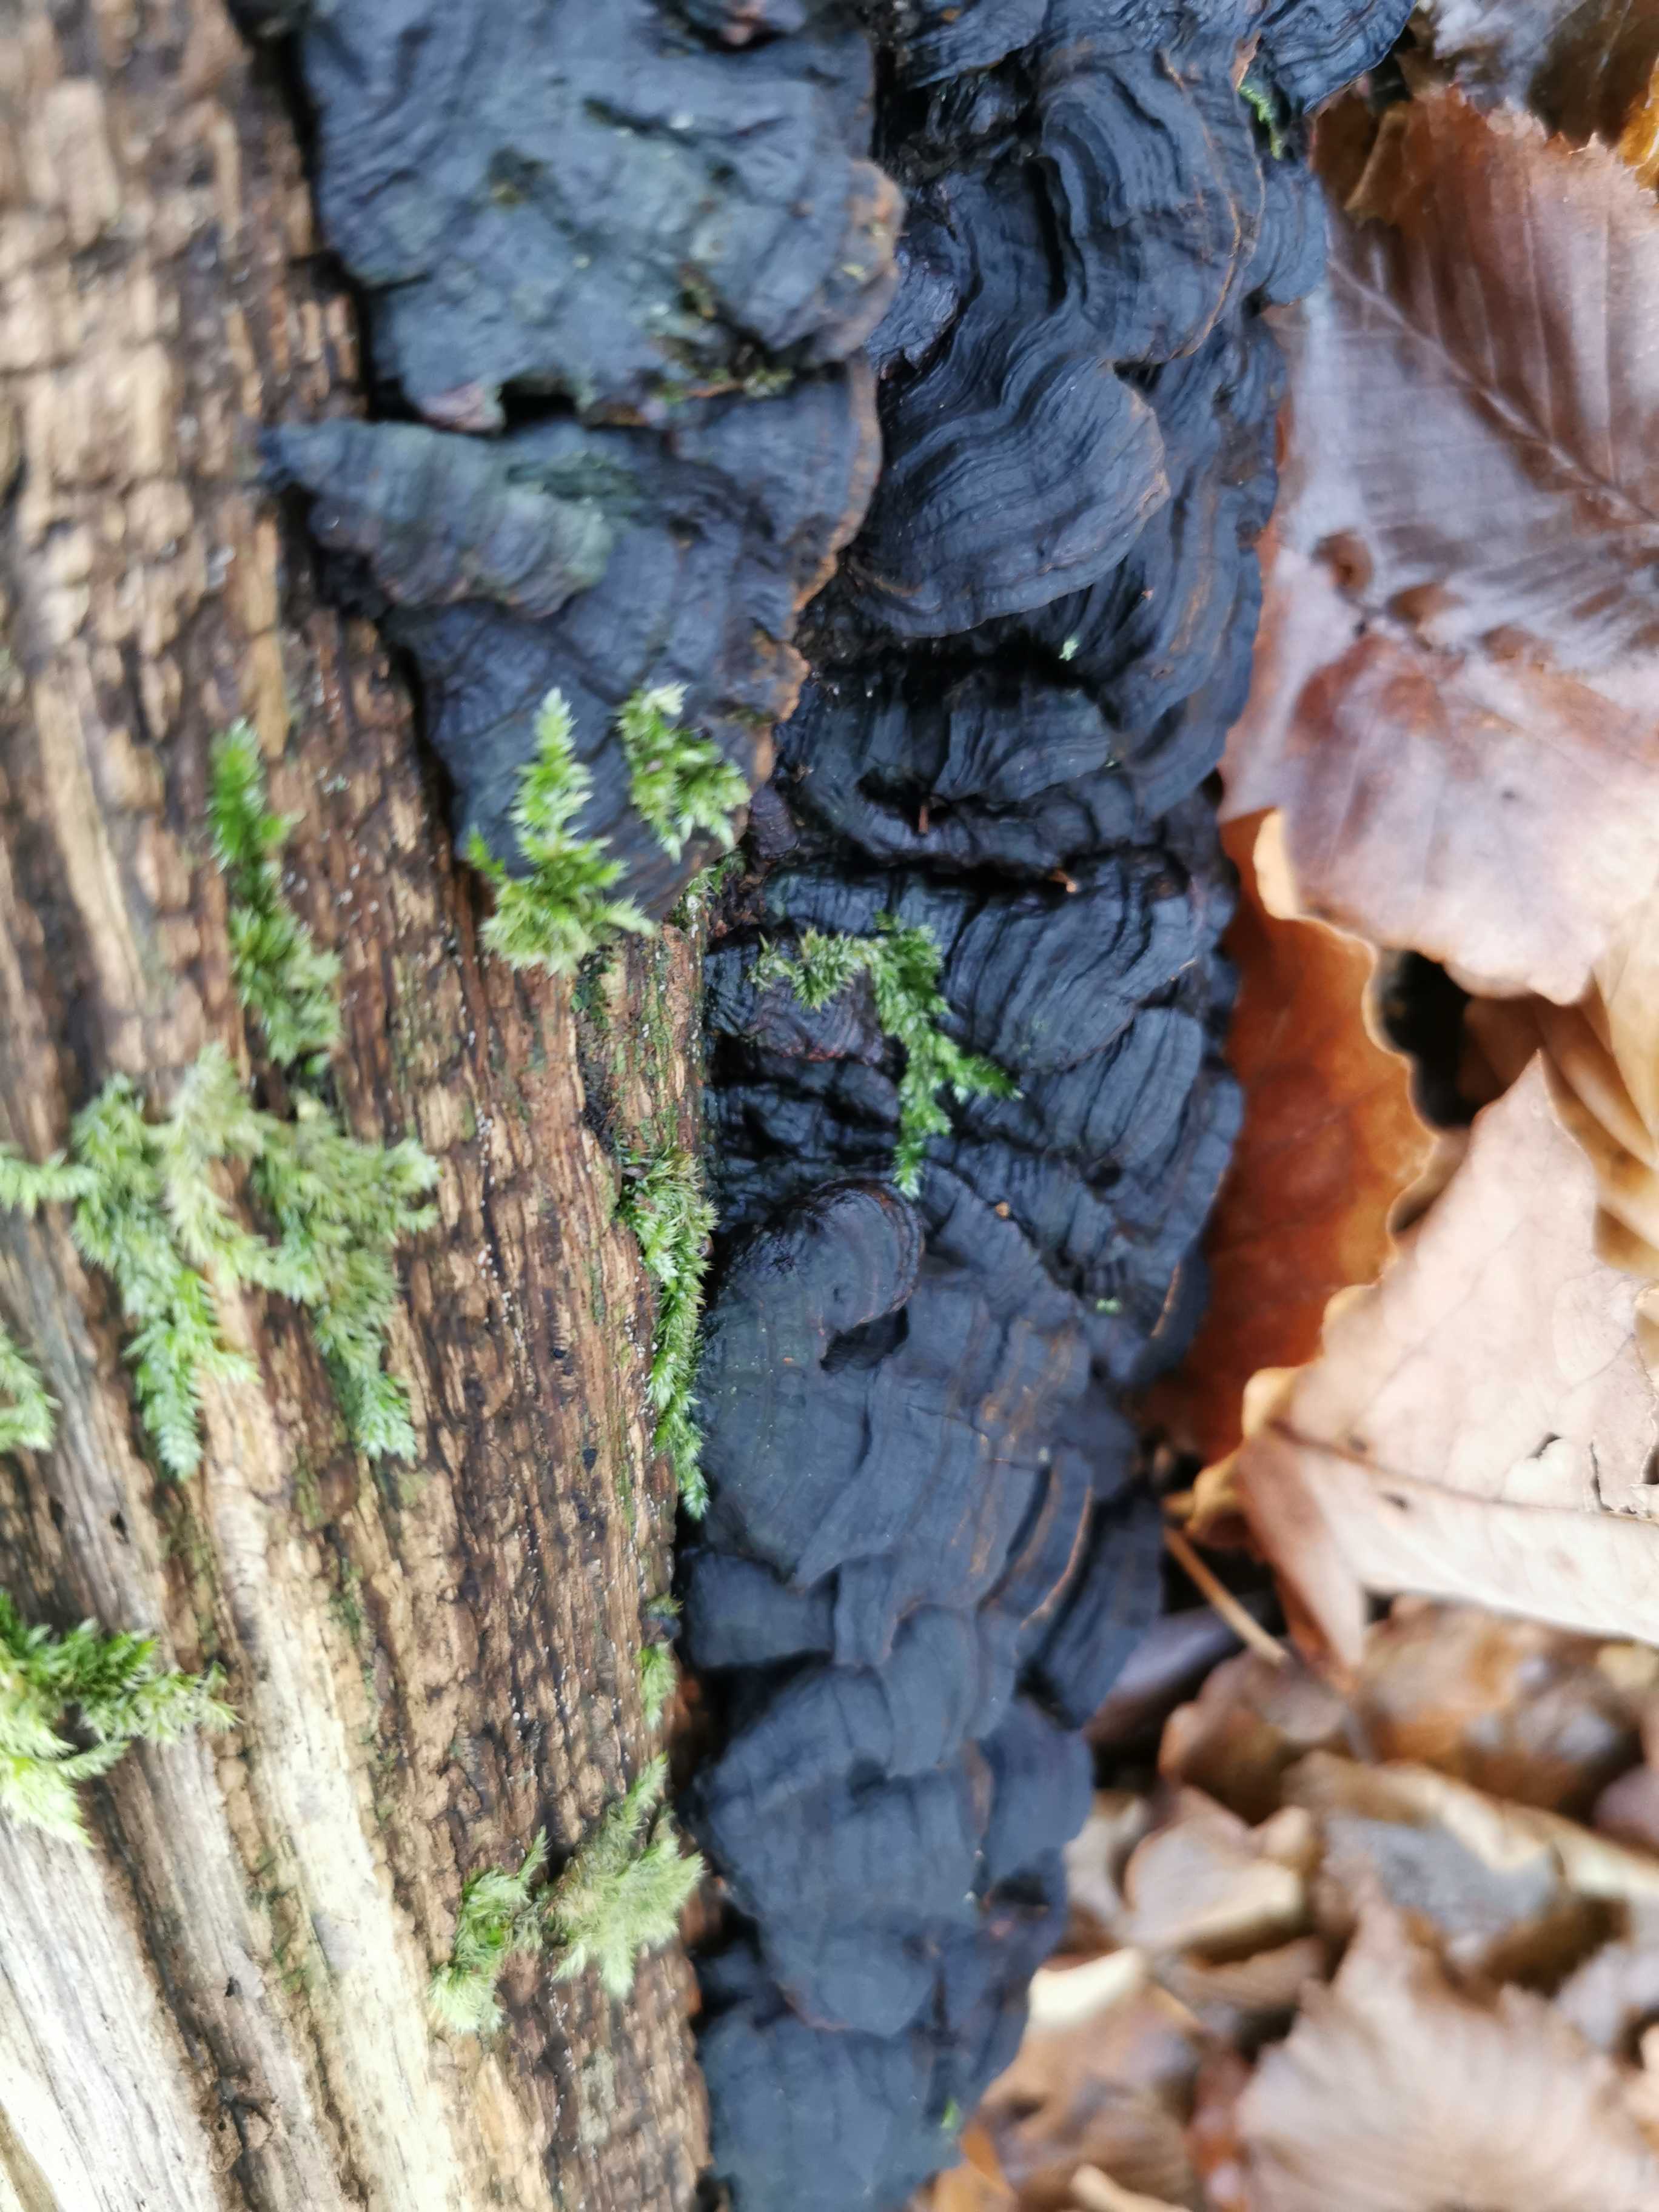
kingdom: Fungi
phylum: Basidiomycota
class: Agaricomycetes
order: Hymenochaetales
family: Hymenochaetaceae
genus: Hymenochaete
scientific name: Hymenochaete rubiginosa
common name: stiv ruslædersvamp
